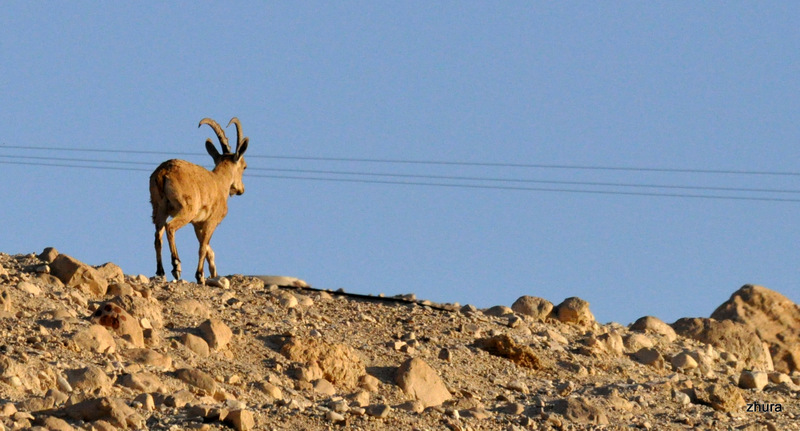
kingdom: Animalia
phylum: Chordata
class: Mammalia
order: Artiodactyla
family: Bovidae
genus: Capra
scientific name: Capra ibex
